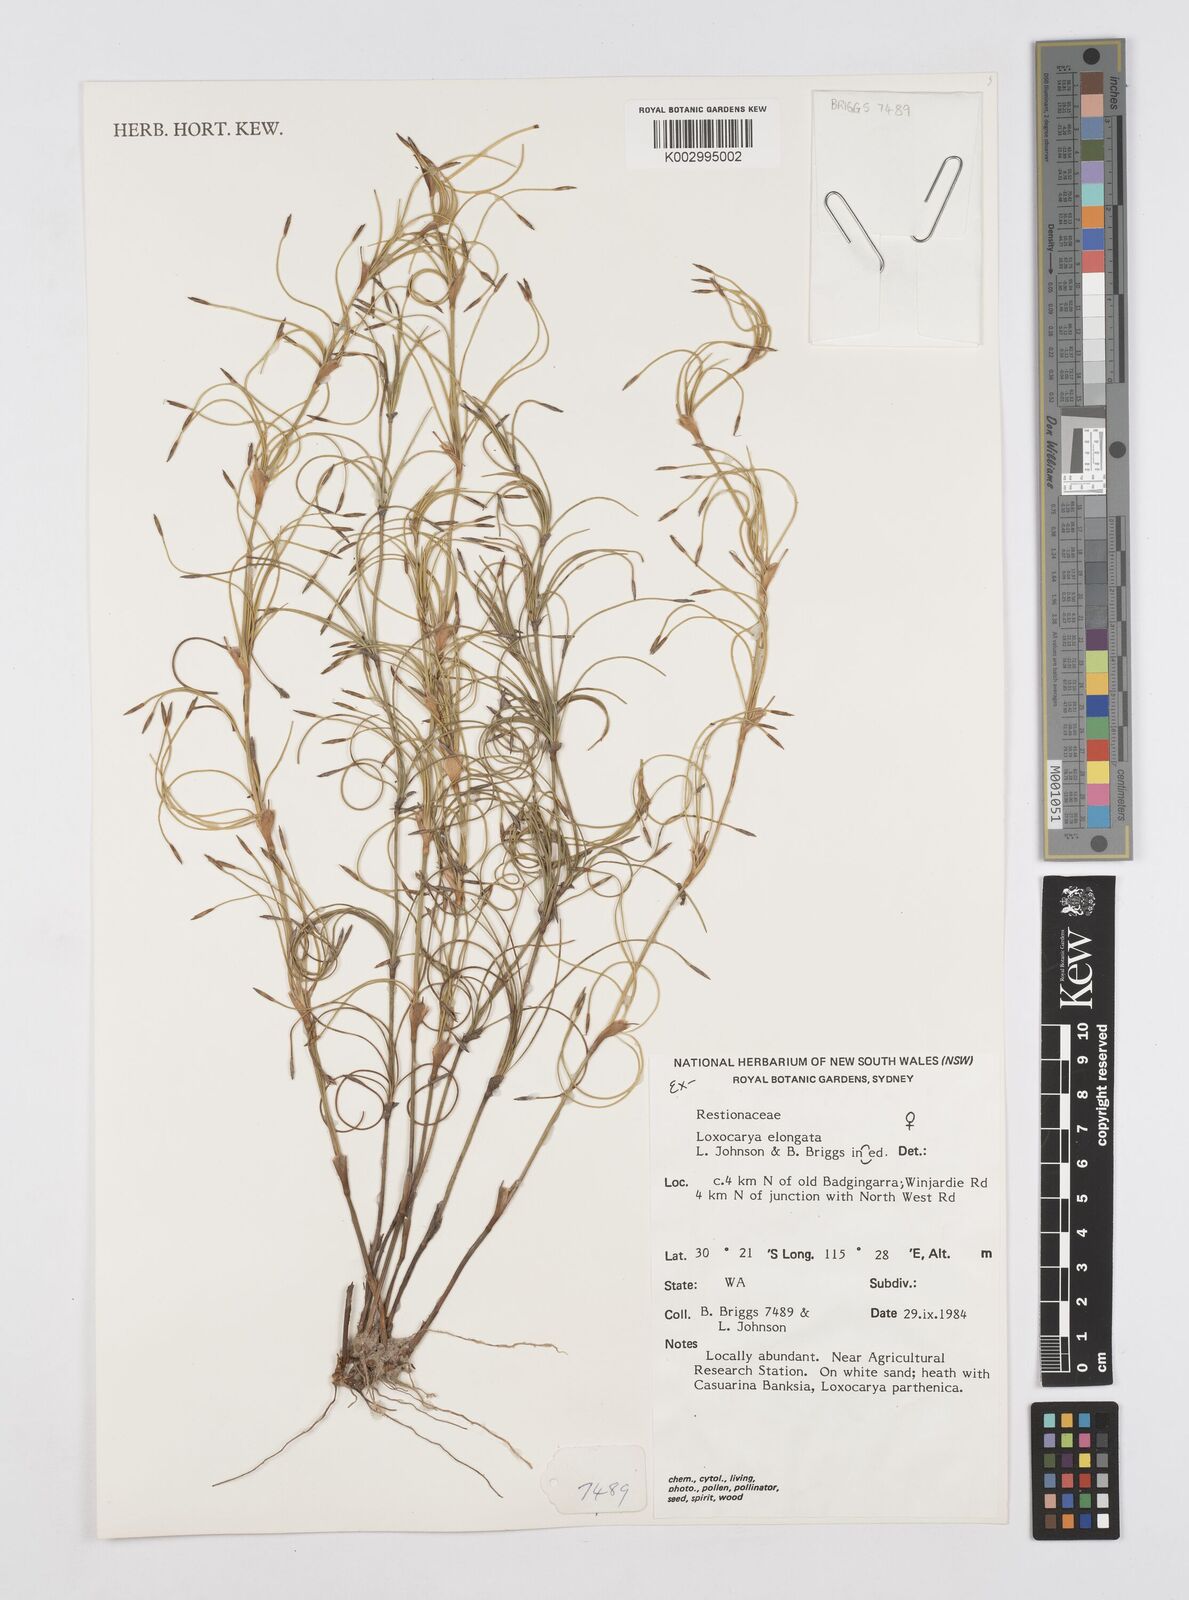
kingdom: Plantae
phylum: Tracheophyta
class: Liliopsida
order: Poales
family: Restionaceae
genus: Desmocladus
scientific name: Desmocladus elongatus
